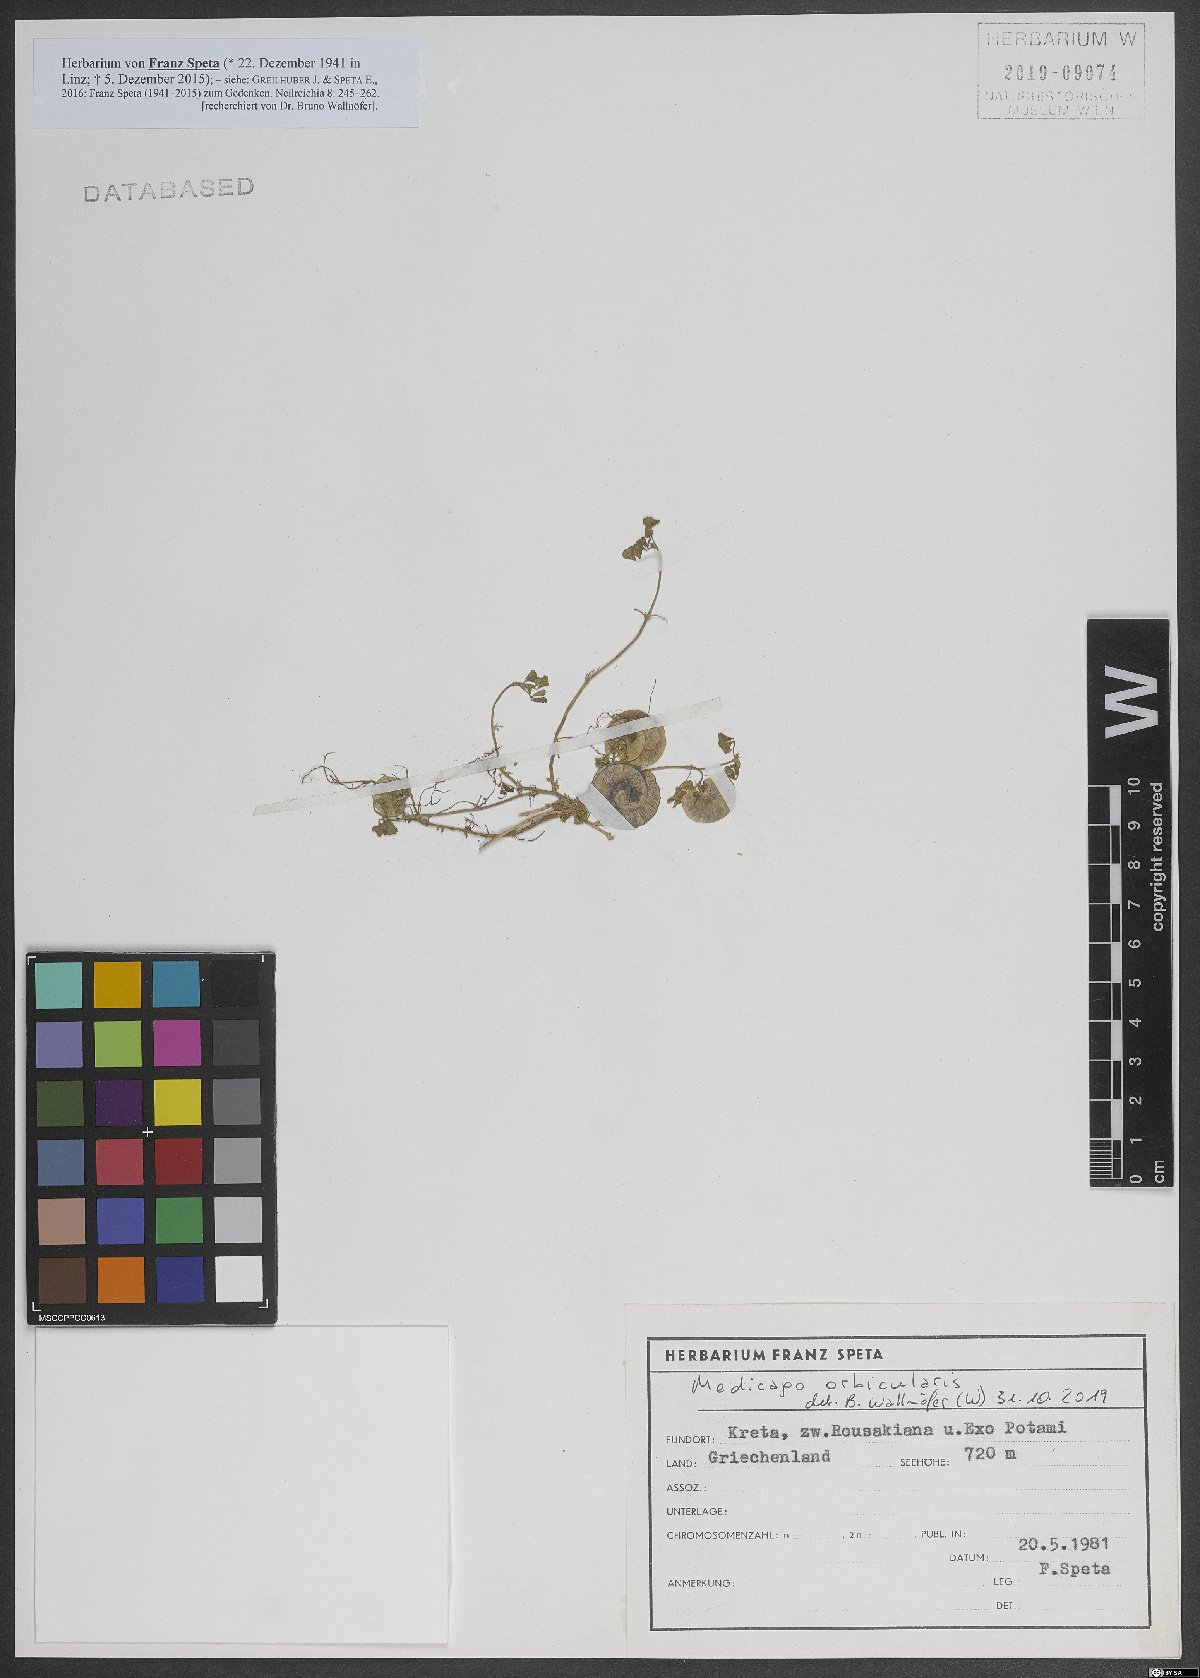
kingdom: Plantae
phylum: Tracheophyta
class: Magnoliopsida
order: Fabales
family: Fabaceae
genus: Medicago
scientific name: Medicago orbicularis
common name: Button medick
